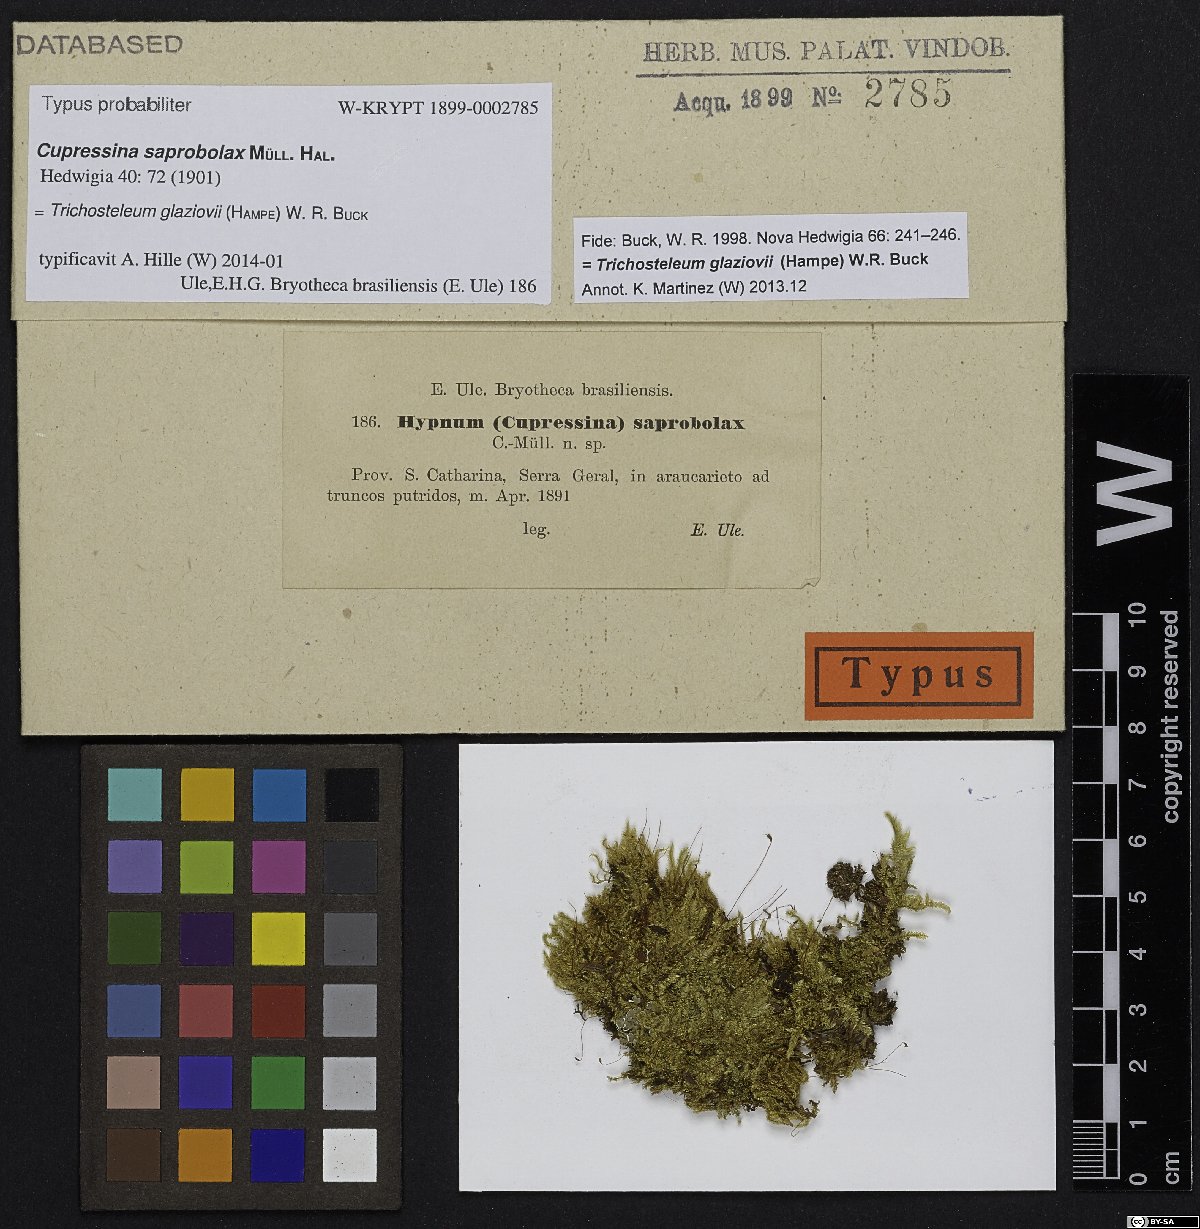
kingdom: Plantae
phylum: Bryophyta
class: Bryopsida
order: Hypnales
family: Sematophyllaceae
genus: Trichosteleum
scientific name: Trichosteleum glaziovii
